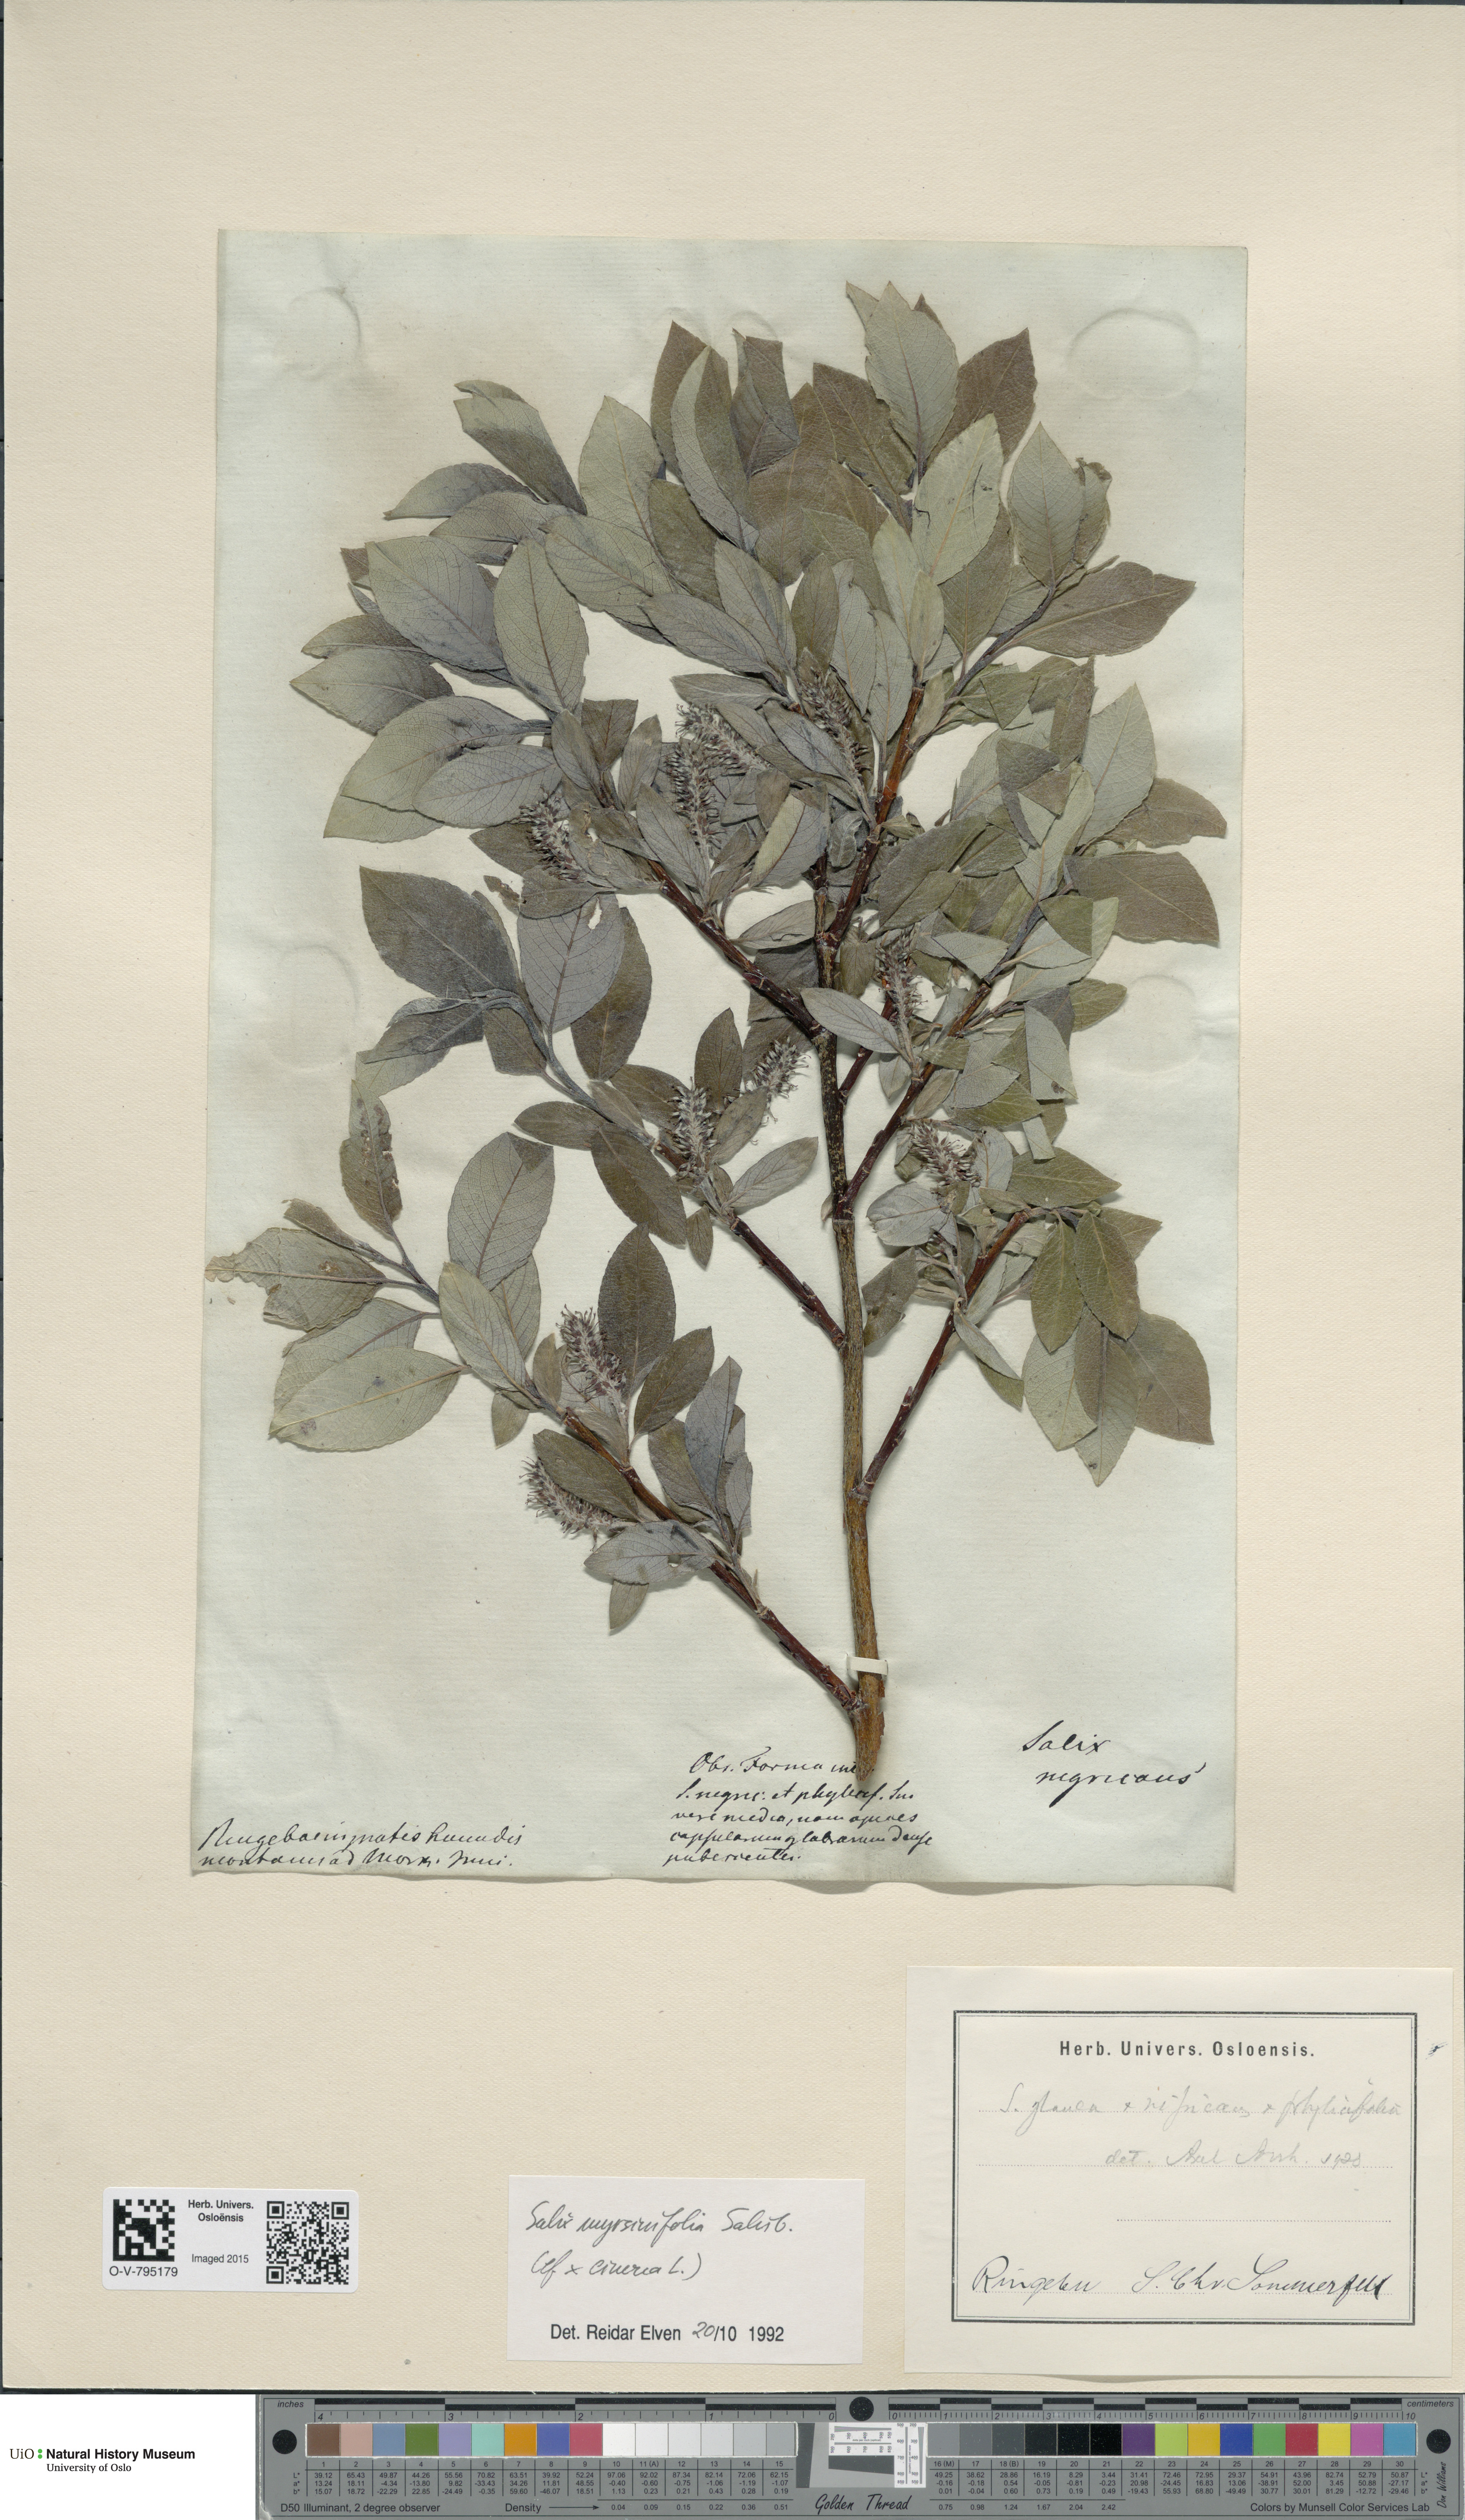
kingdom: Plantae
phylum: Tracheophyta
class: Magnoliopsida
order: Malpighiales
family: Salicaceae
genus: Salix
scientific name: Salix myrsinifolia
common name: Dark-leaved willow
